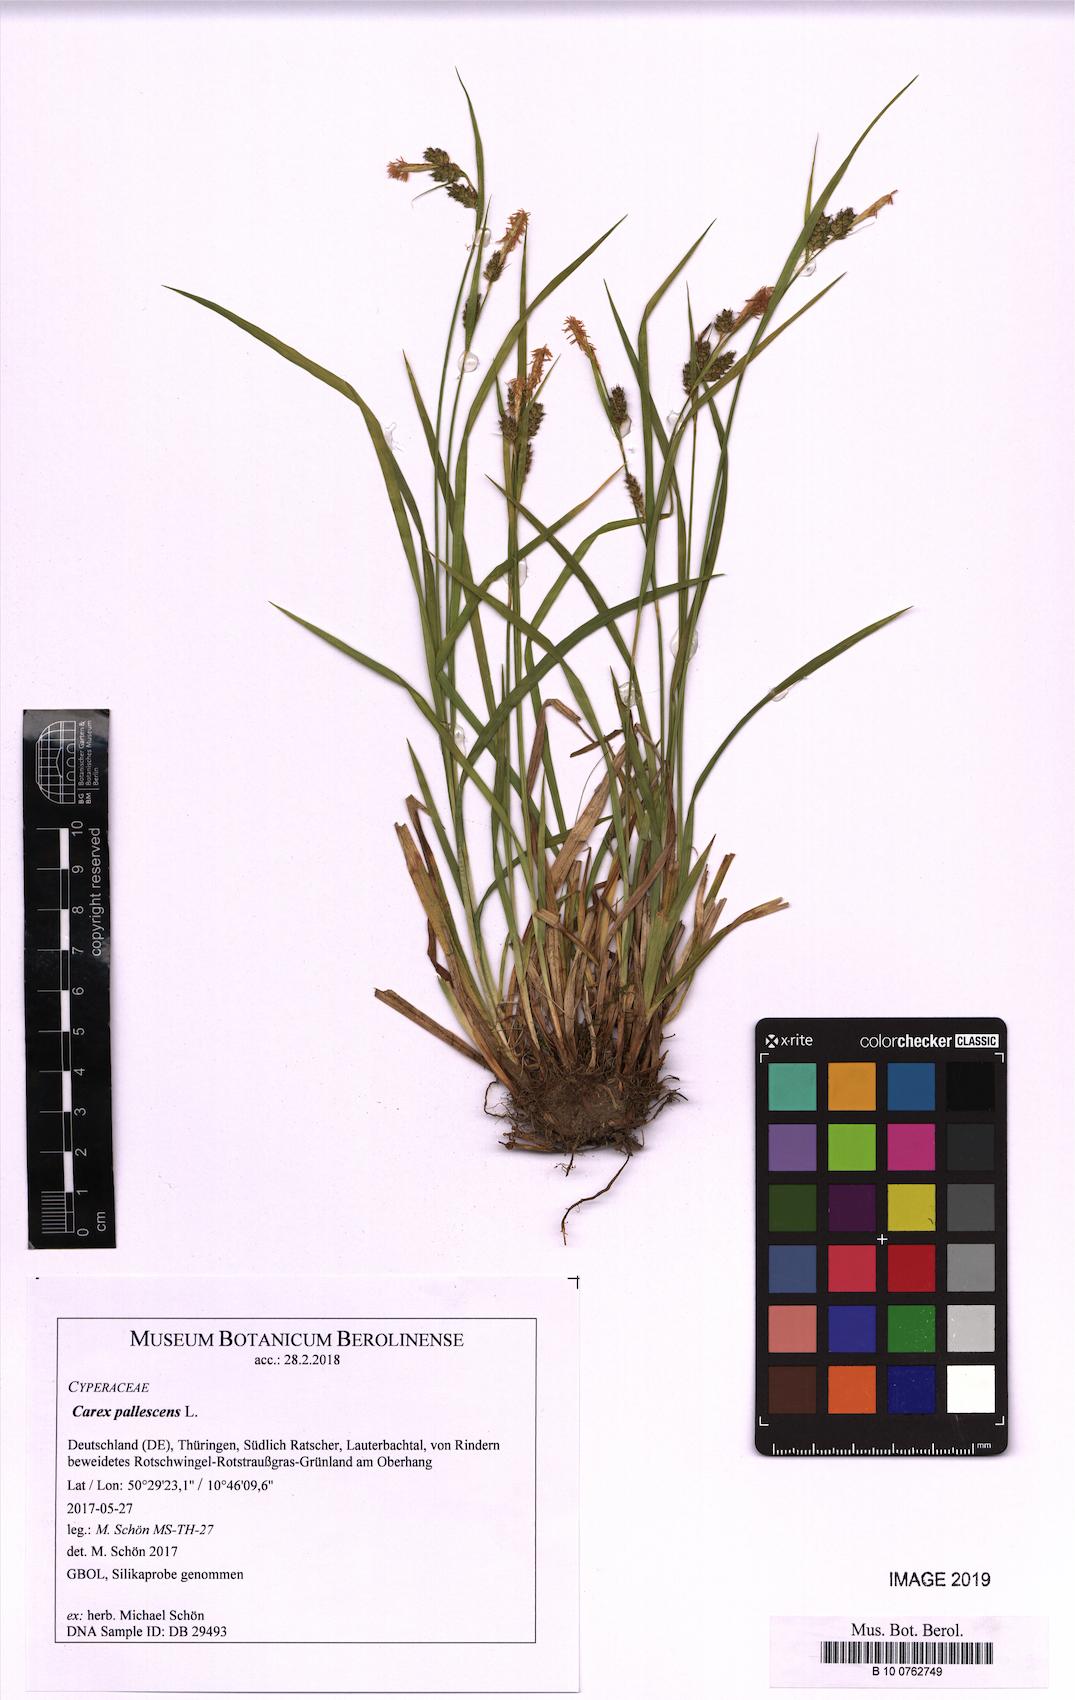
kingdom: Plantae
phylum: Tracheophyta
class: Liliopsida
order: Poales
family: Cyperaceae
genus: Carex
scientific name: Carex pallescens
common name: Pale sedge
